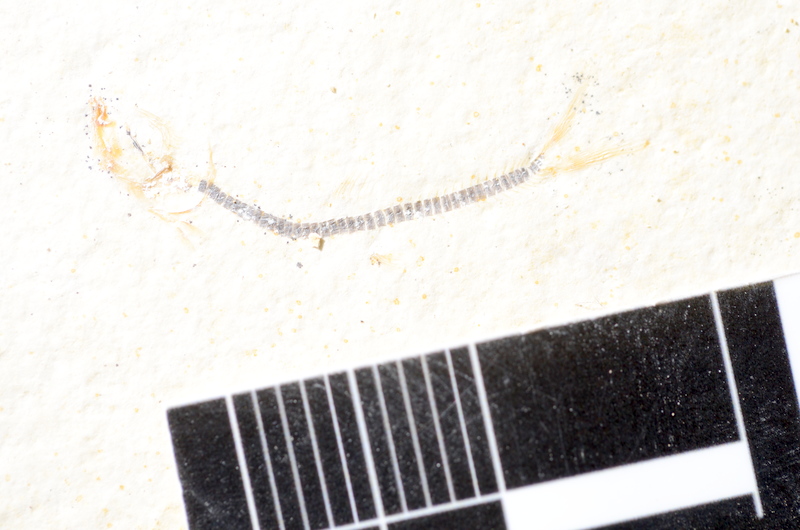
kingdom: Animalia
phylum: Chordata
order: Salmoniformes
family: Orthogonikleithridae
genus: Orthogonikleithrus
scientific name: Orthogonikleithrus hoelli
